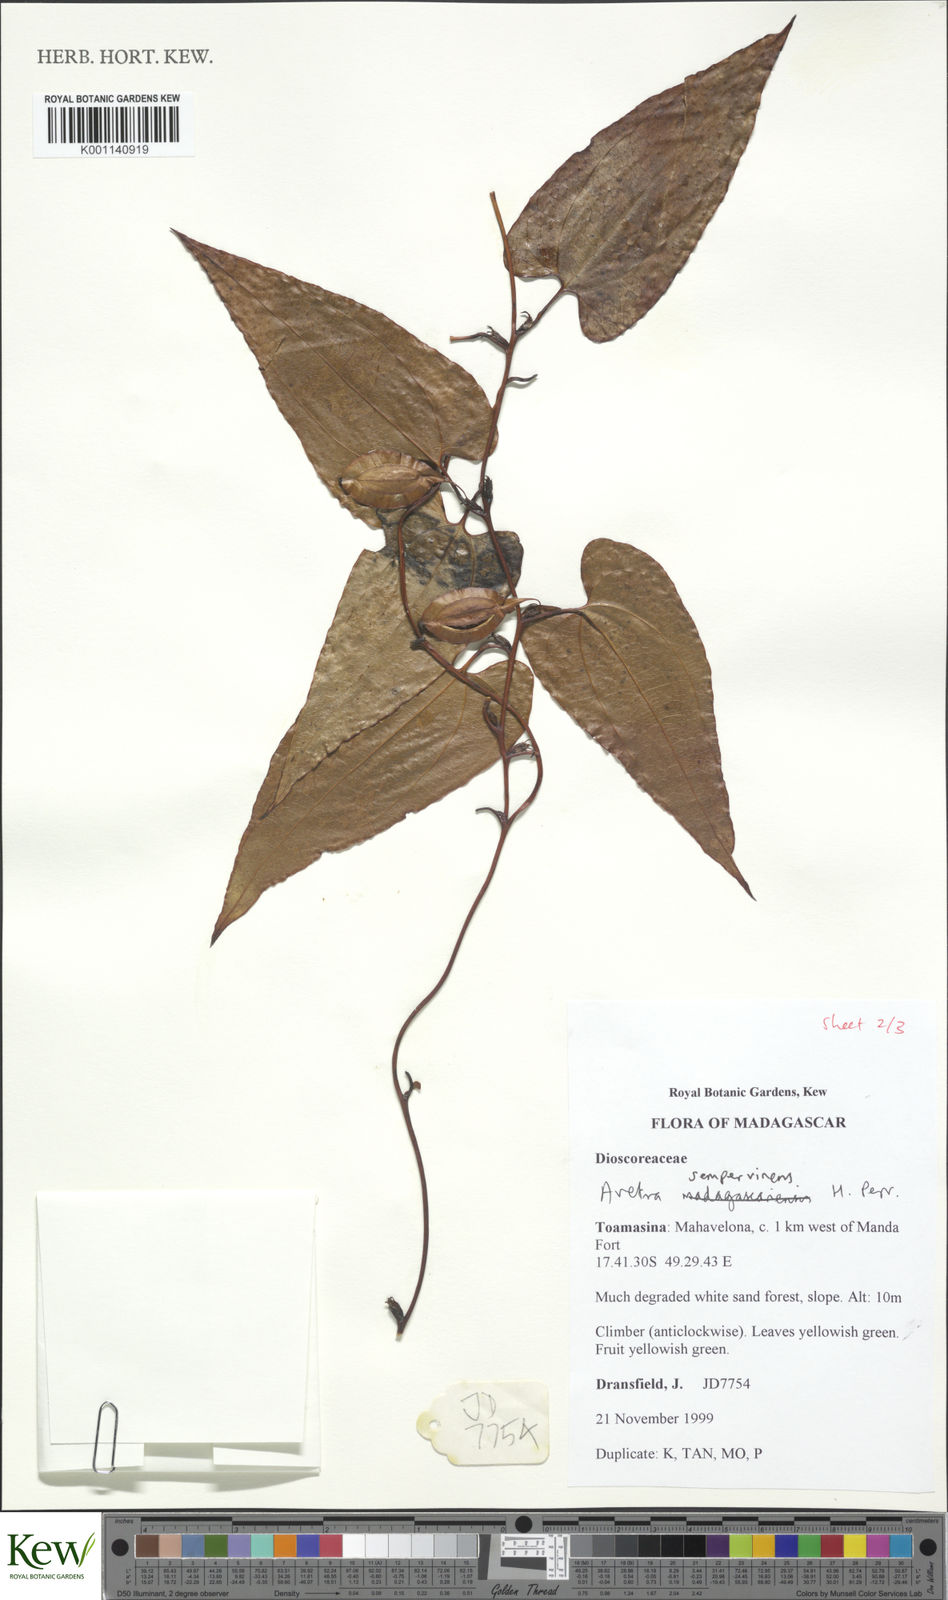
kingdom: Plantae
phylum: Tracheophyta
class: Liliopsida
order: Dioscoreales
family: Dioscoreaceae
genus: Trichopus
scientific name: Trichopus sempervirens
